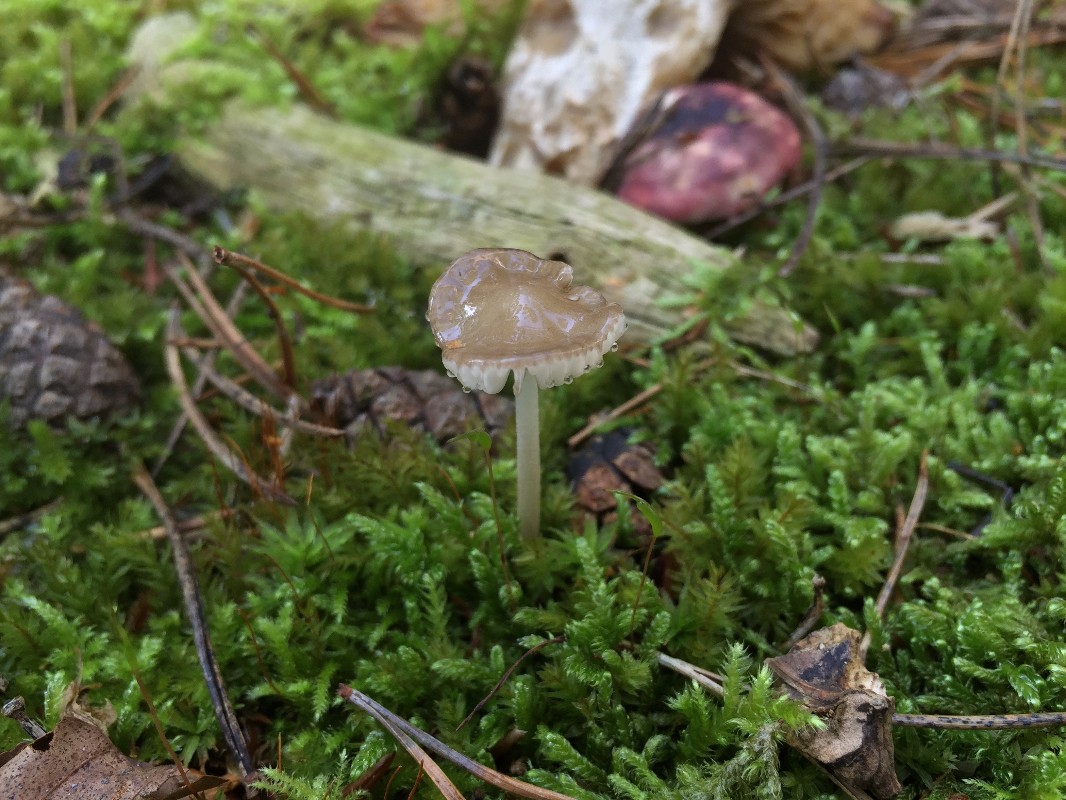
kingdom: Fungi
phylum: Basidiomycota
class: Agaricomycetes
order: Agaricales
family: Physalacriaceae
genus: Hymenopellis
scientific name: Hymenopellis radicata
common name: almindelig pælerodshat
